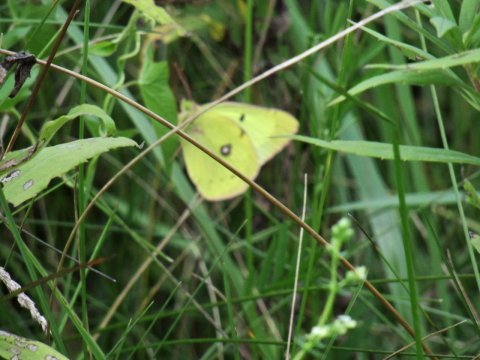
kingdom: Animalia
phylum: Arthropoda
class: Insecta
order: Lepidoptera
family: Pieridae
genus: Colias
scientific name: Colias philodice
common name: Clouded Sulphur
